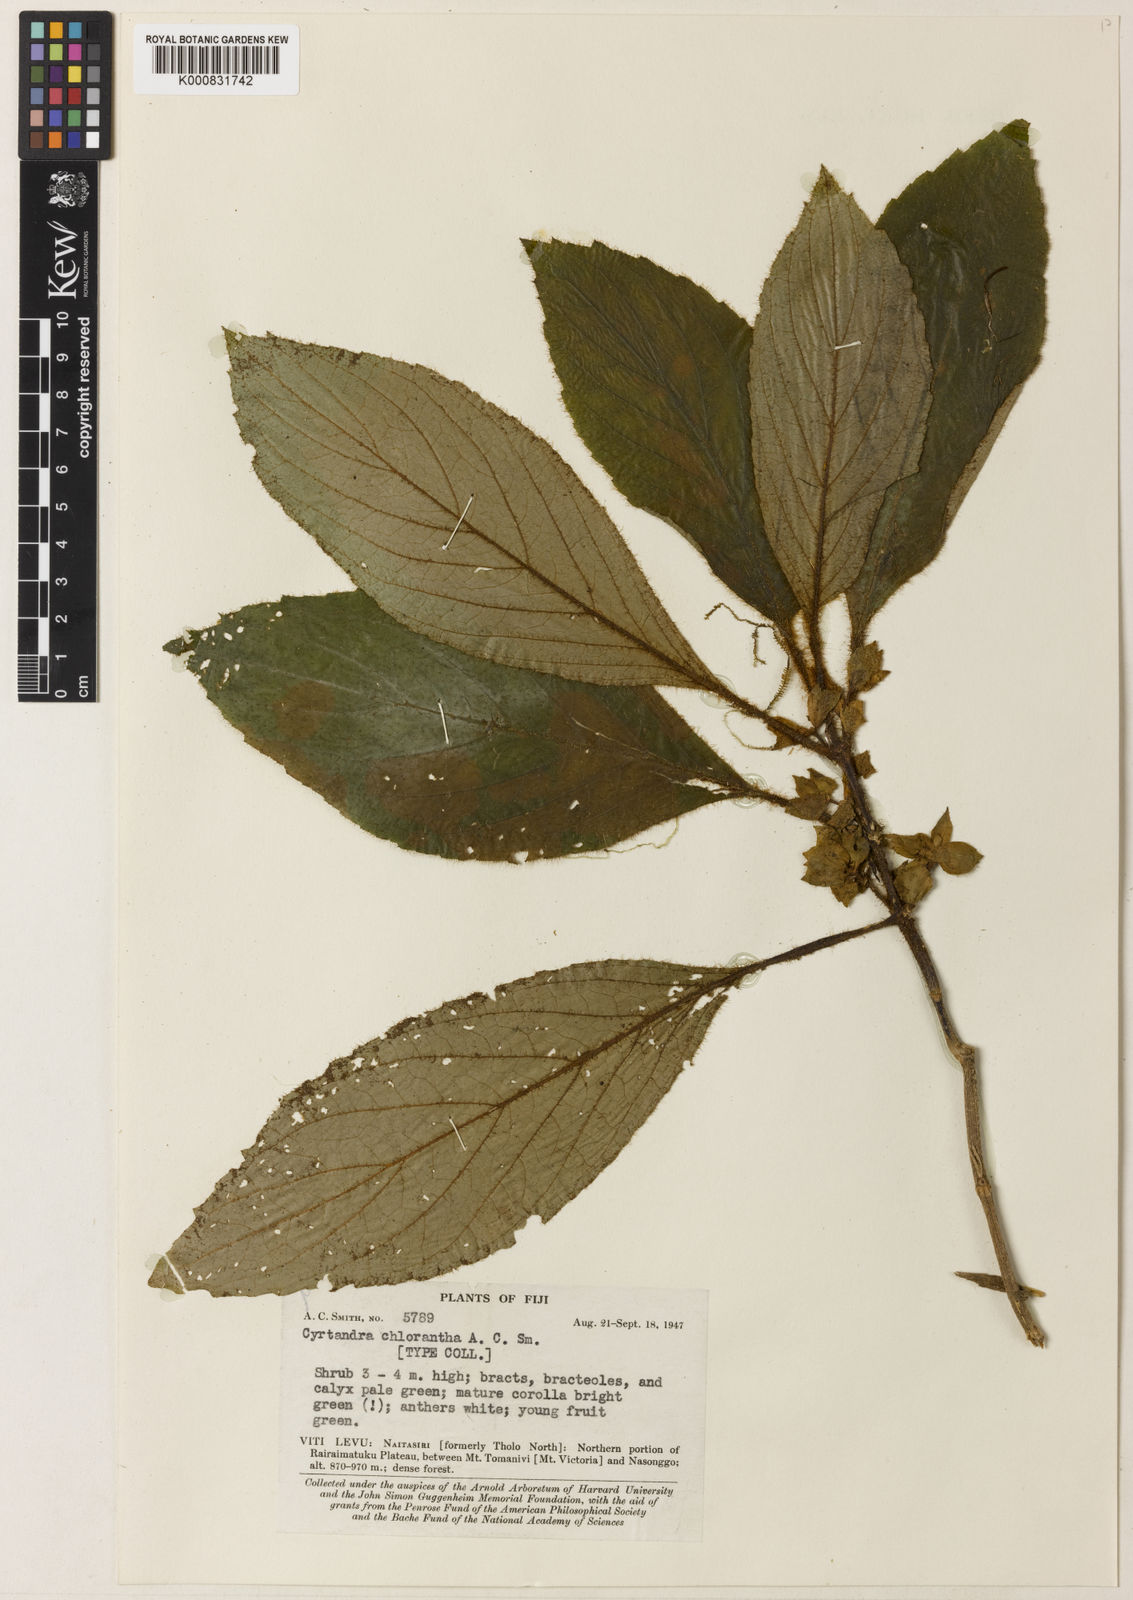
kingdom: Plantae
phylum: Tracheophyta
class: Magnoliopsida
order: Lamiales
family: Gesneriaceae
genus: Cyrtandra
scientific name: Cyrtandra chlorantha
